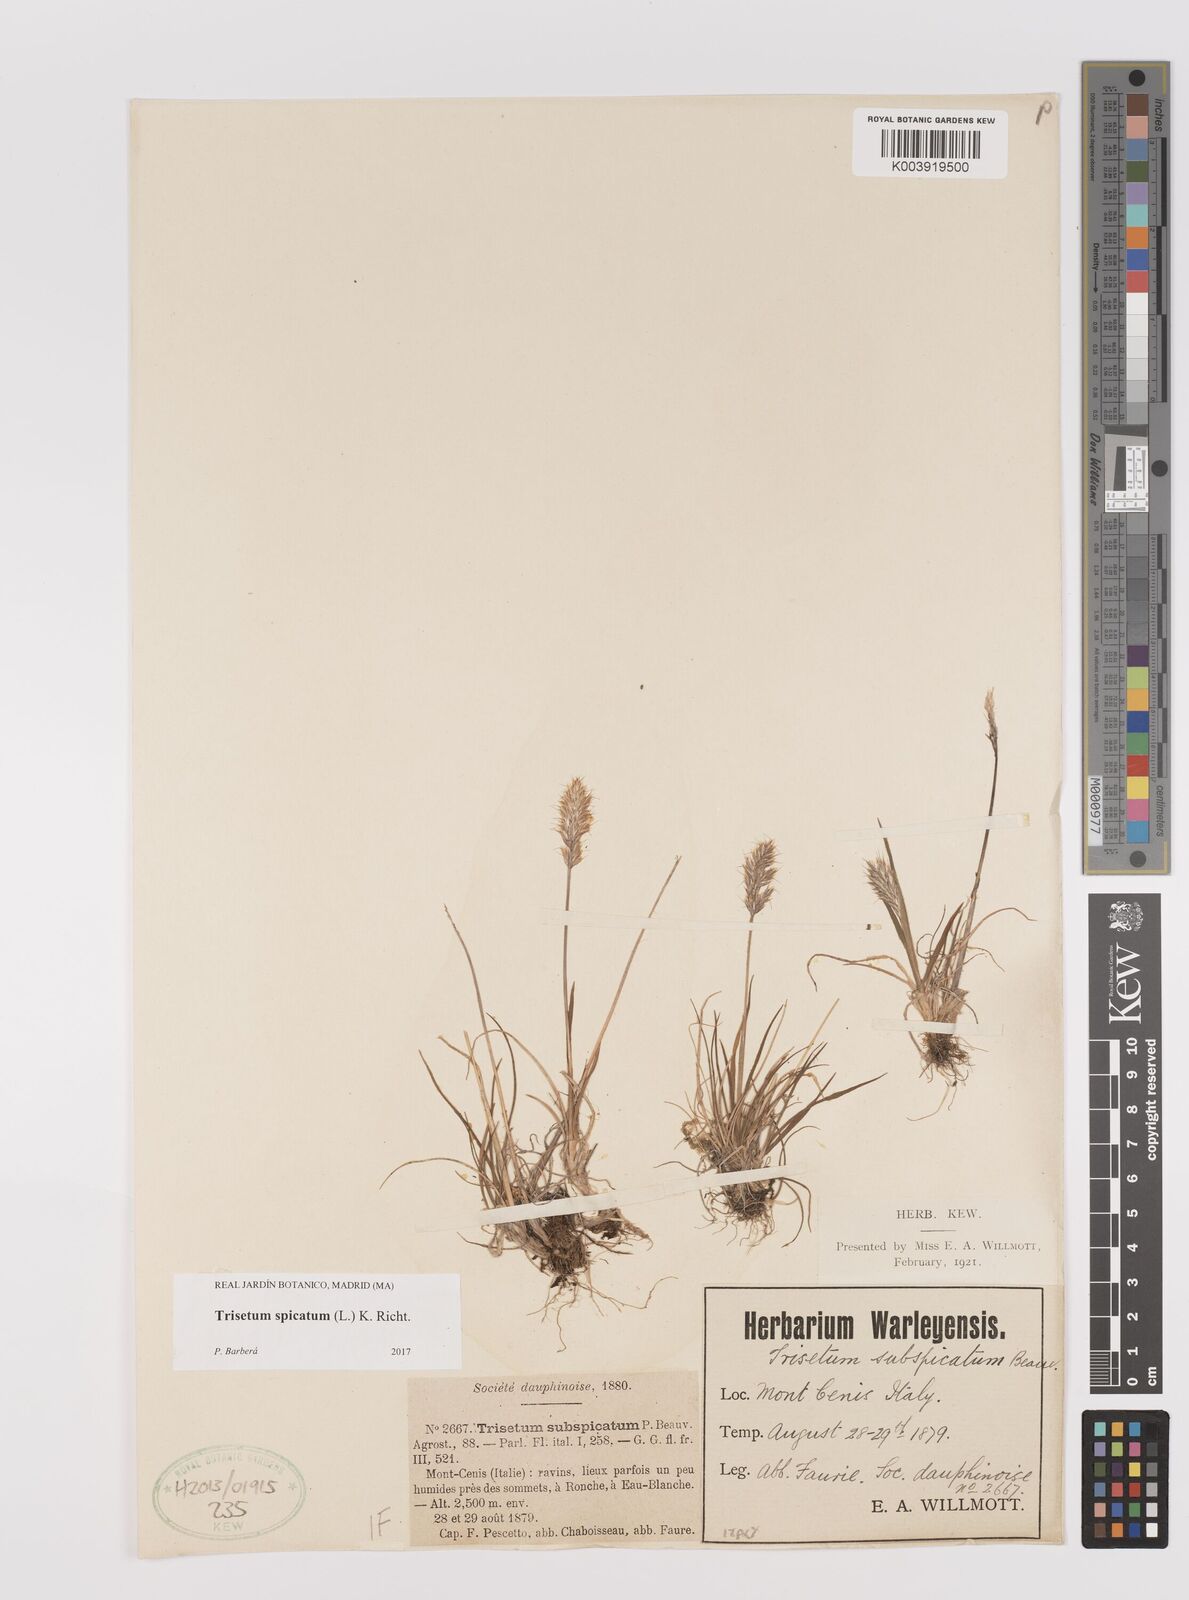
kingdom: Plantae
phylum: Tracheophyta
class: Liliopsida
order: Poales
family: Poaceae
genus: Koeleria
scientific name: Koeleria spicata
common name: Mountain trisetum
